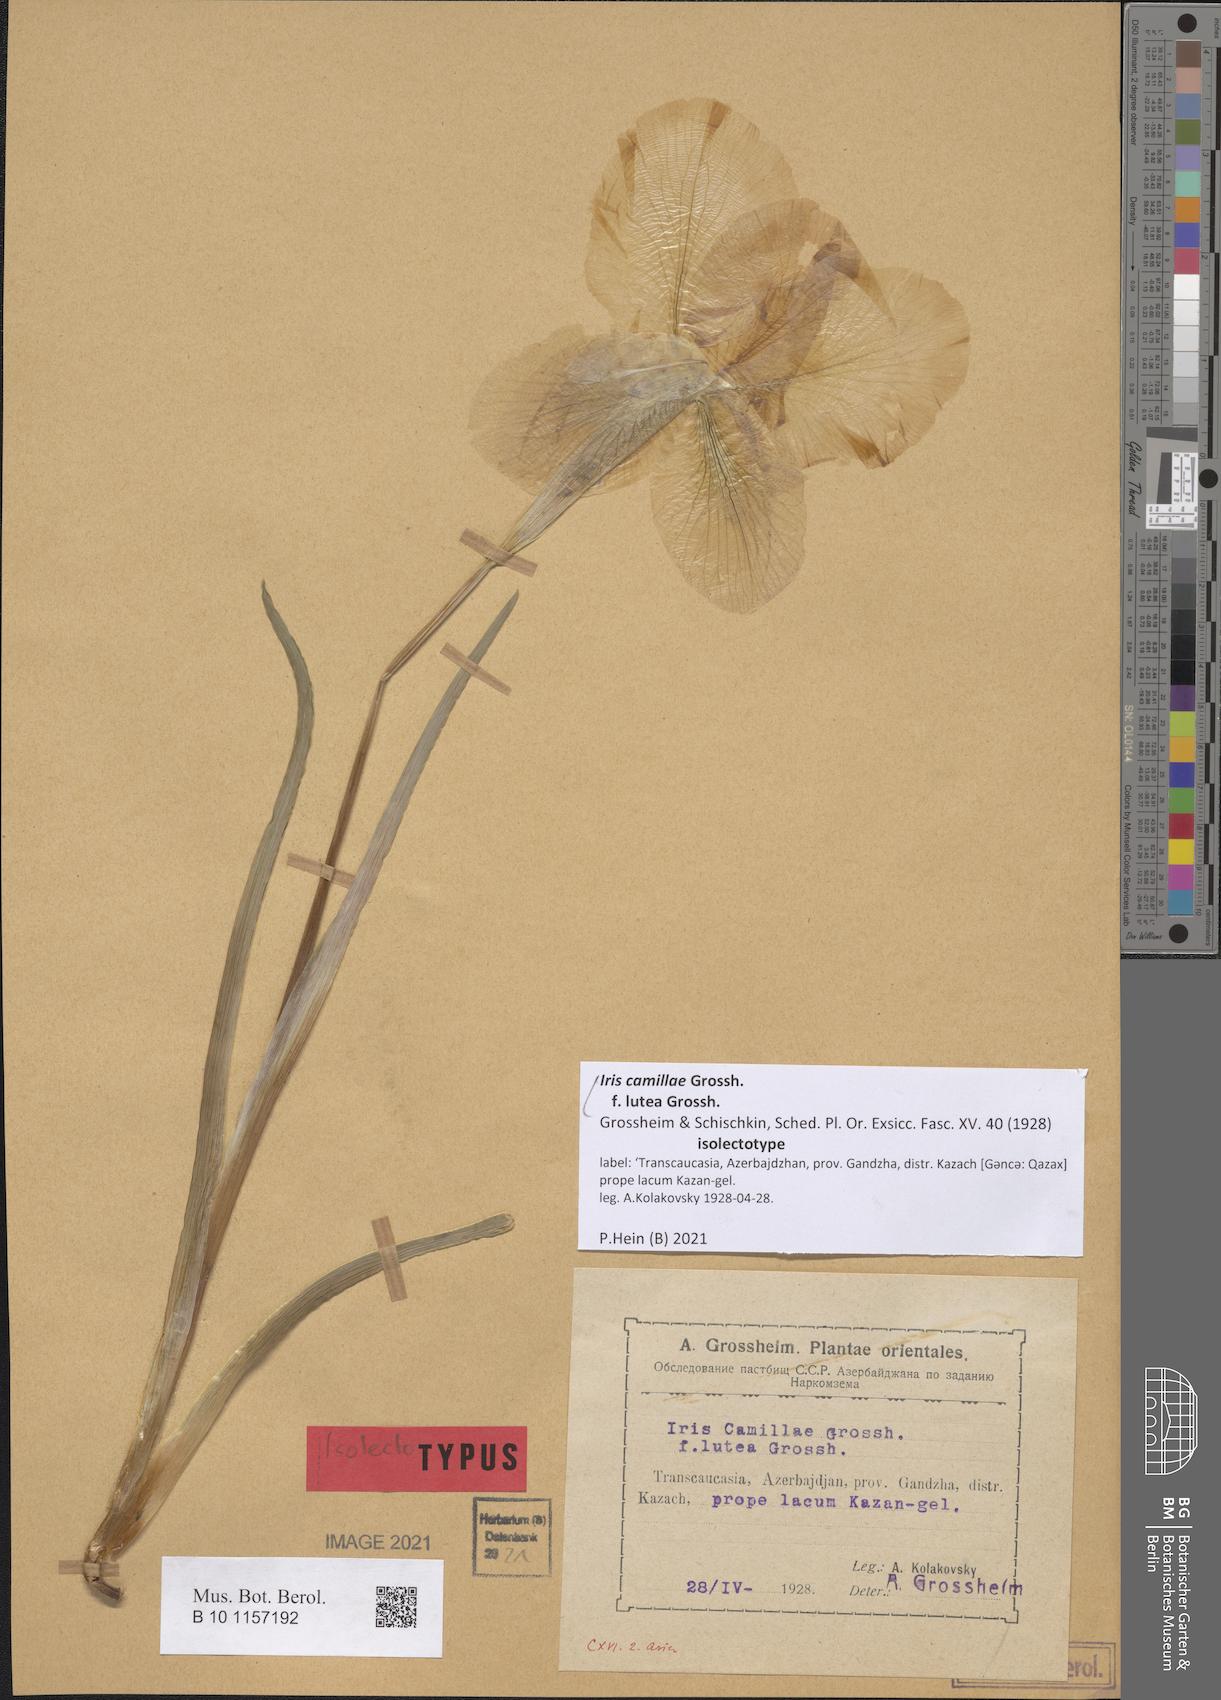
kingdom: Plantae
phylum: Tracheophyta
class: Liliopsida
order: Asparagales
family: Iridaceae
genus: Iris
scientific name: Iris camillae
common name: Kamilla's iris
